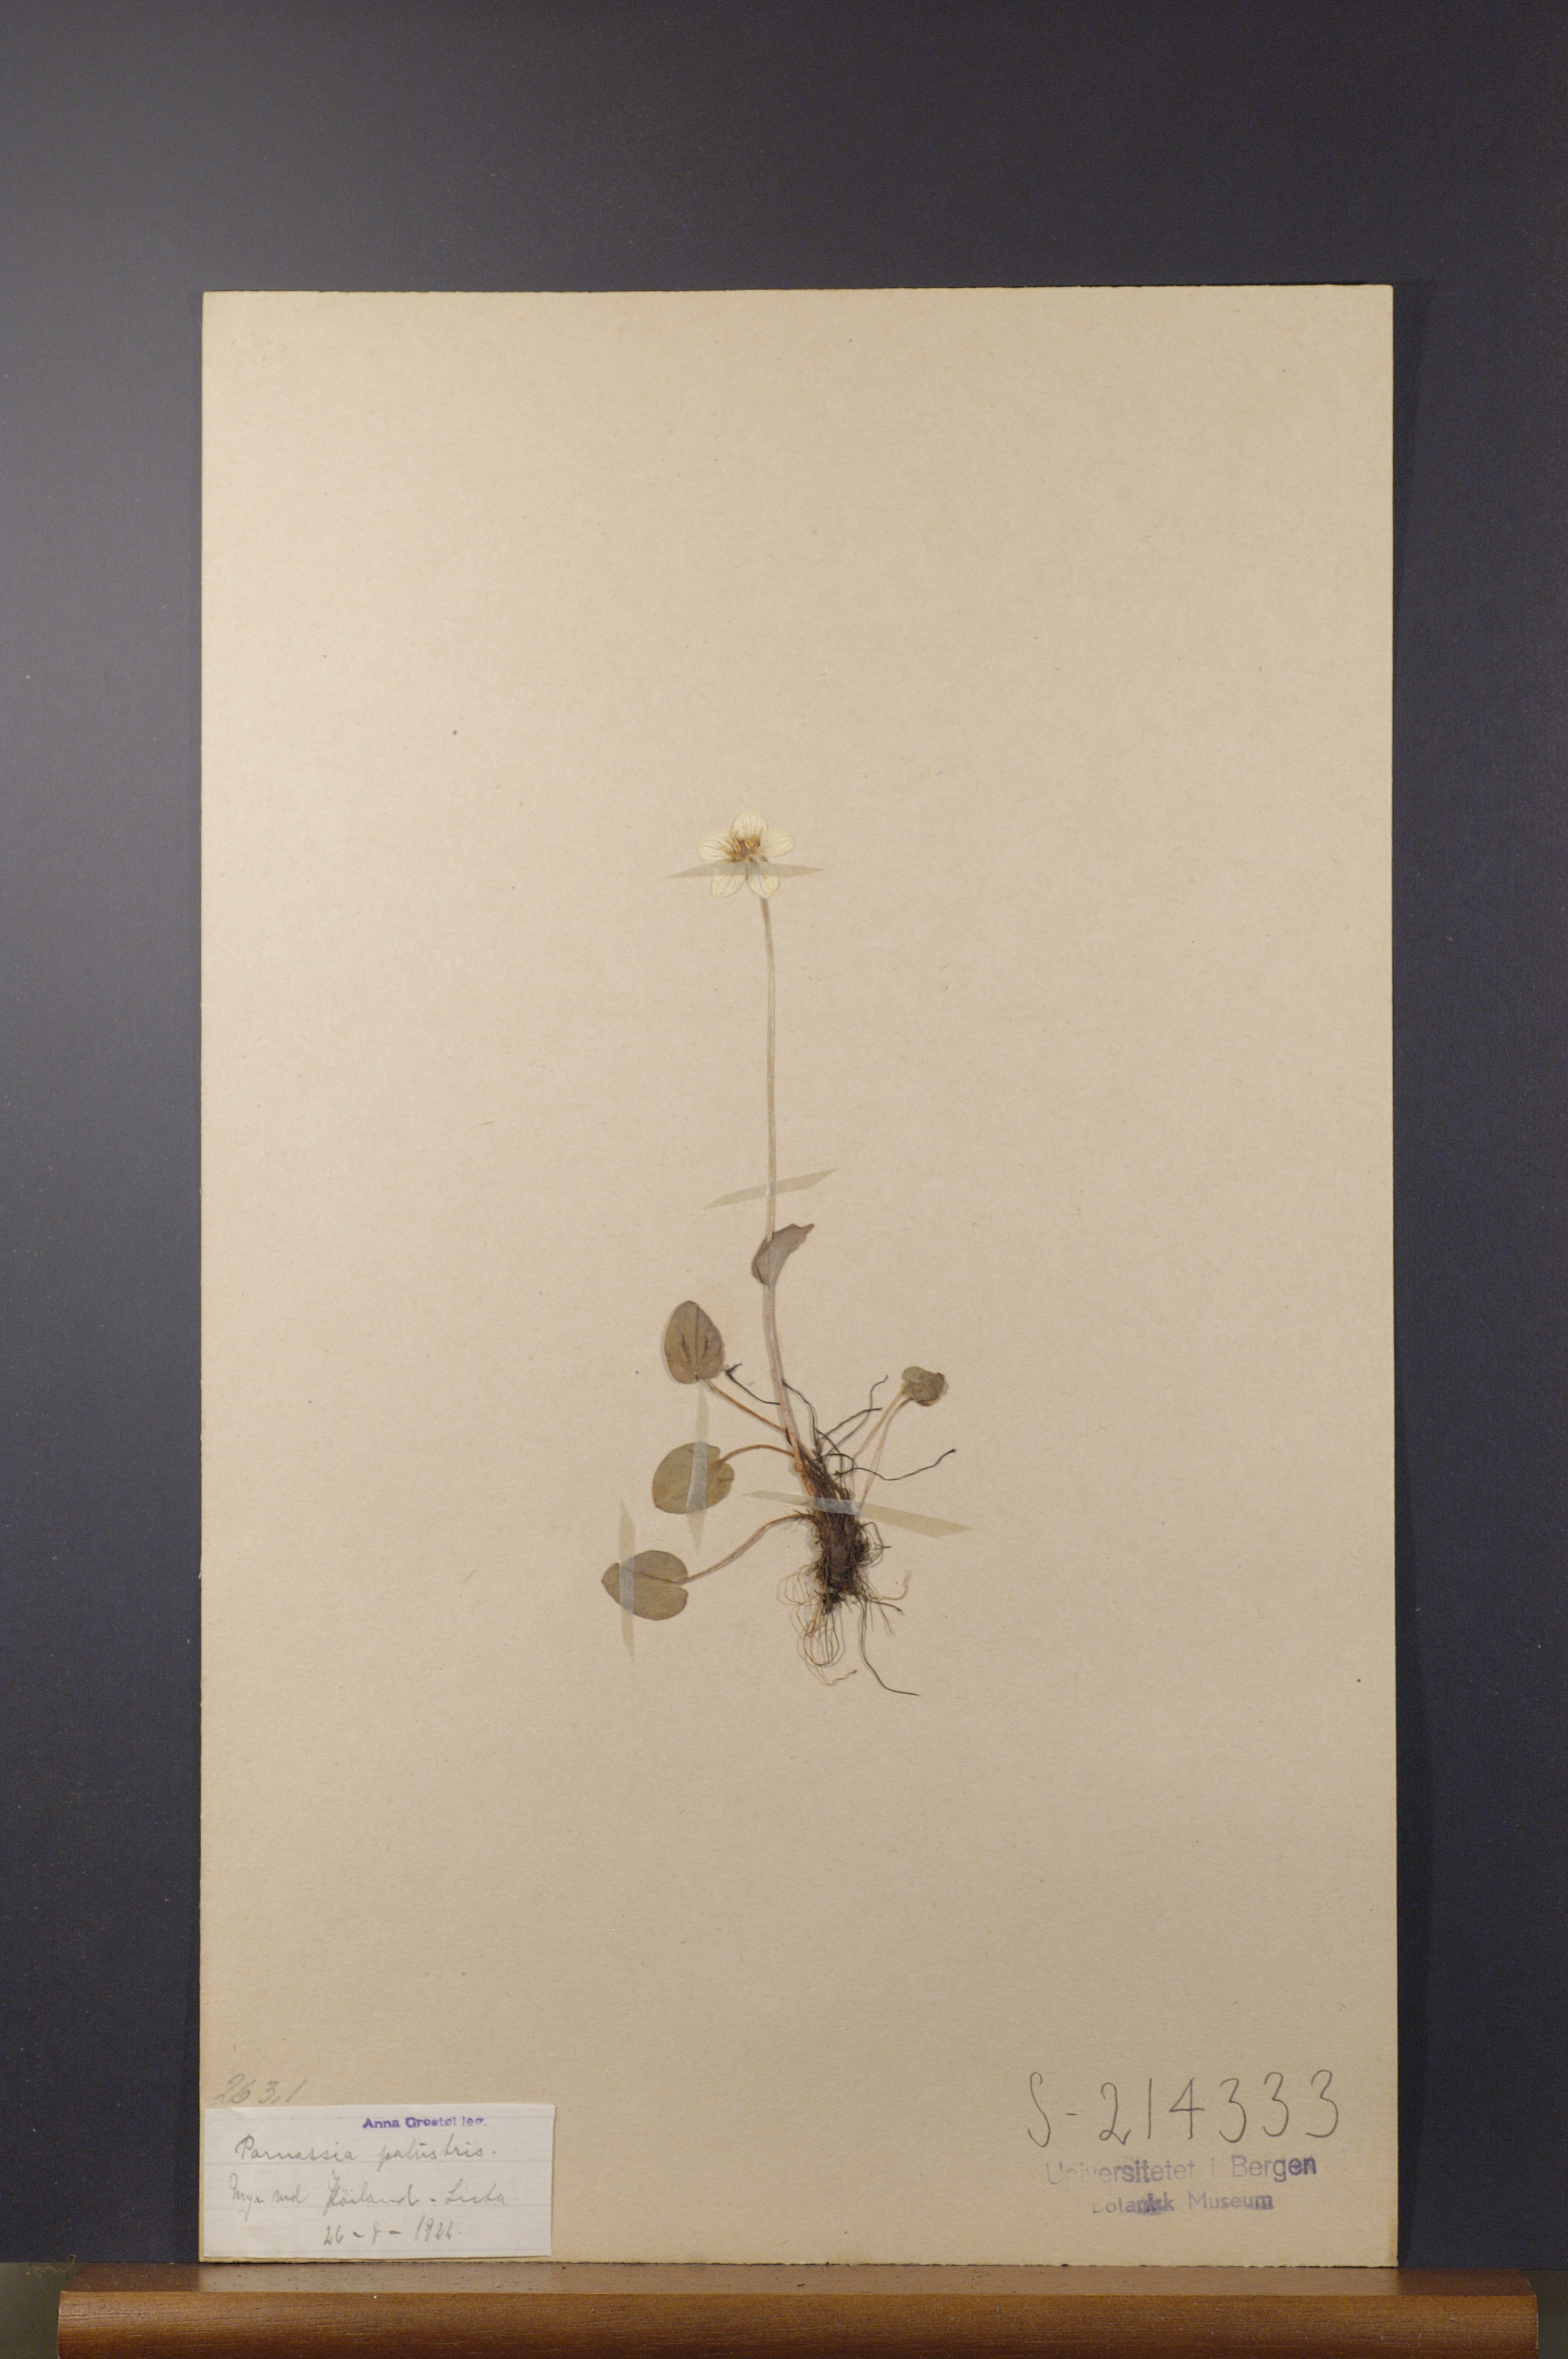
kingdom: Plantae
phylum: Tracheophyta
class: Magnoliopsida
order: Celastrales
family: Parnassiaceae
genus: Parnassia
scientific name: Parnassia palustris
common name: Grass-of-parnassus
